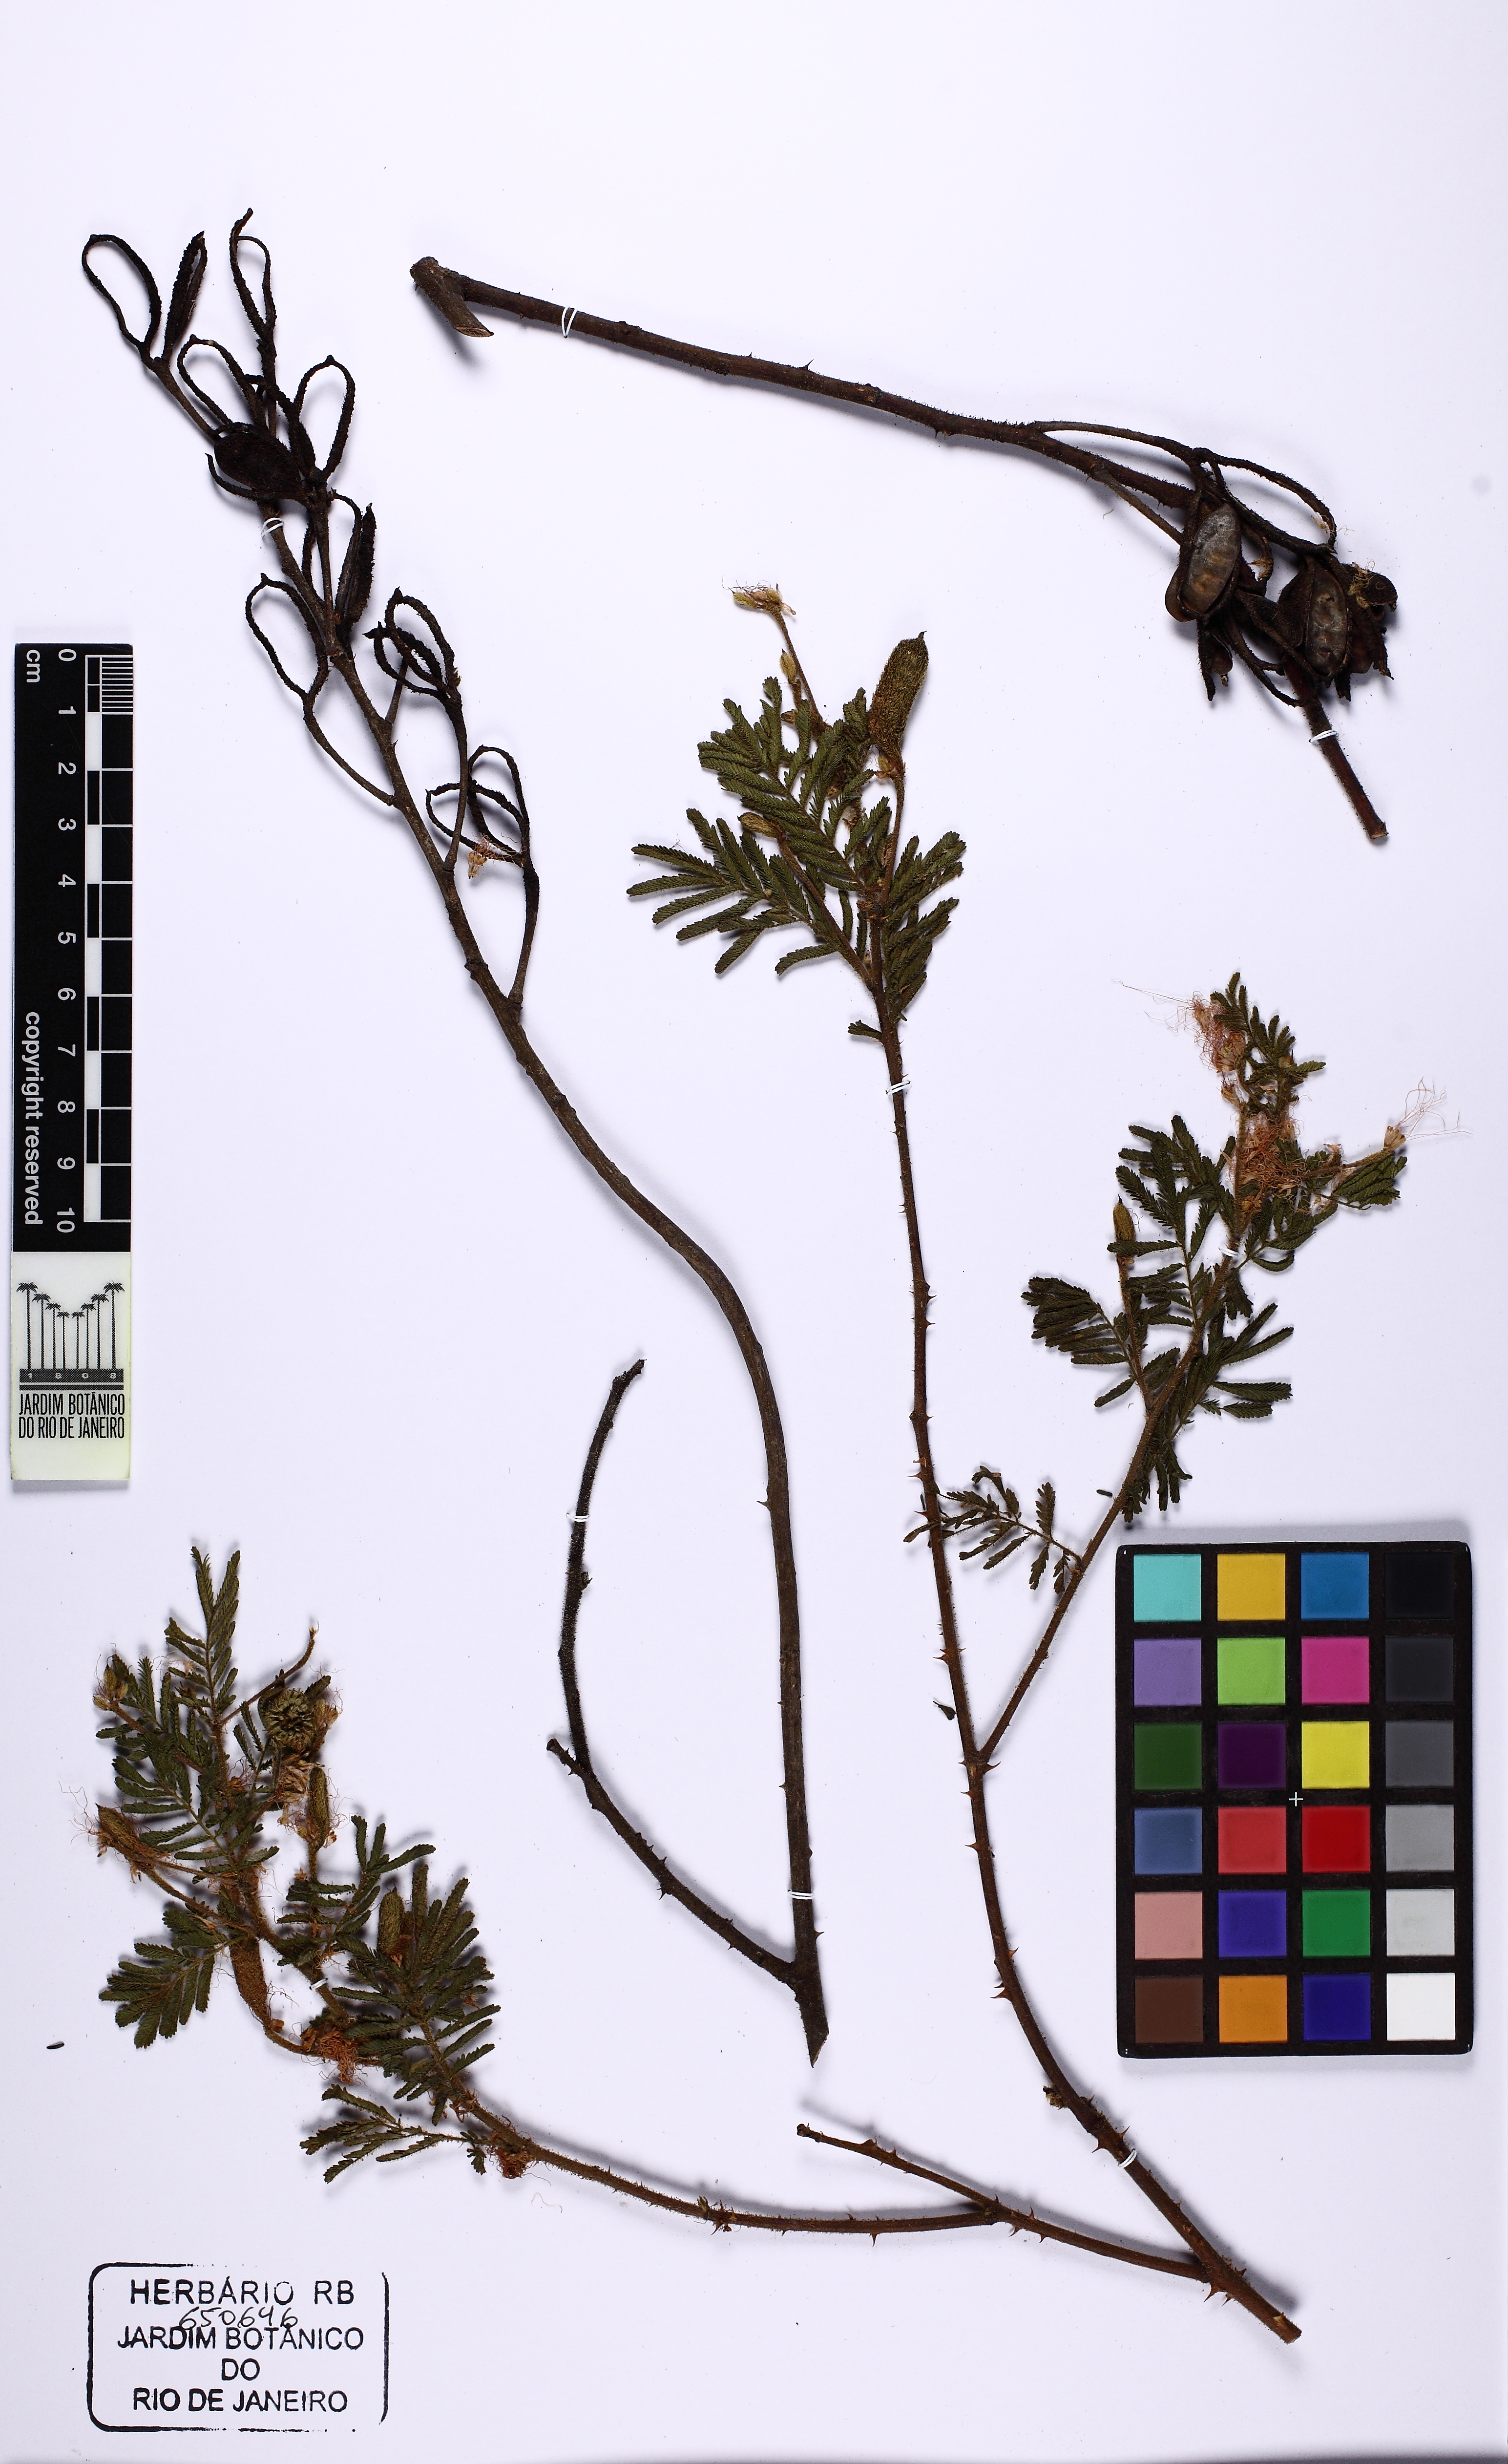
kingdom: Plantae
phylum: Tracheophyta
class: Magnoliopsida
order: Fabales
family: Fabaceae
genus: Mimosa
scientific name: Mimosa adenotricha
